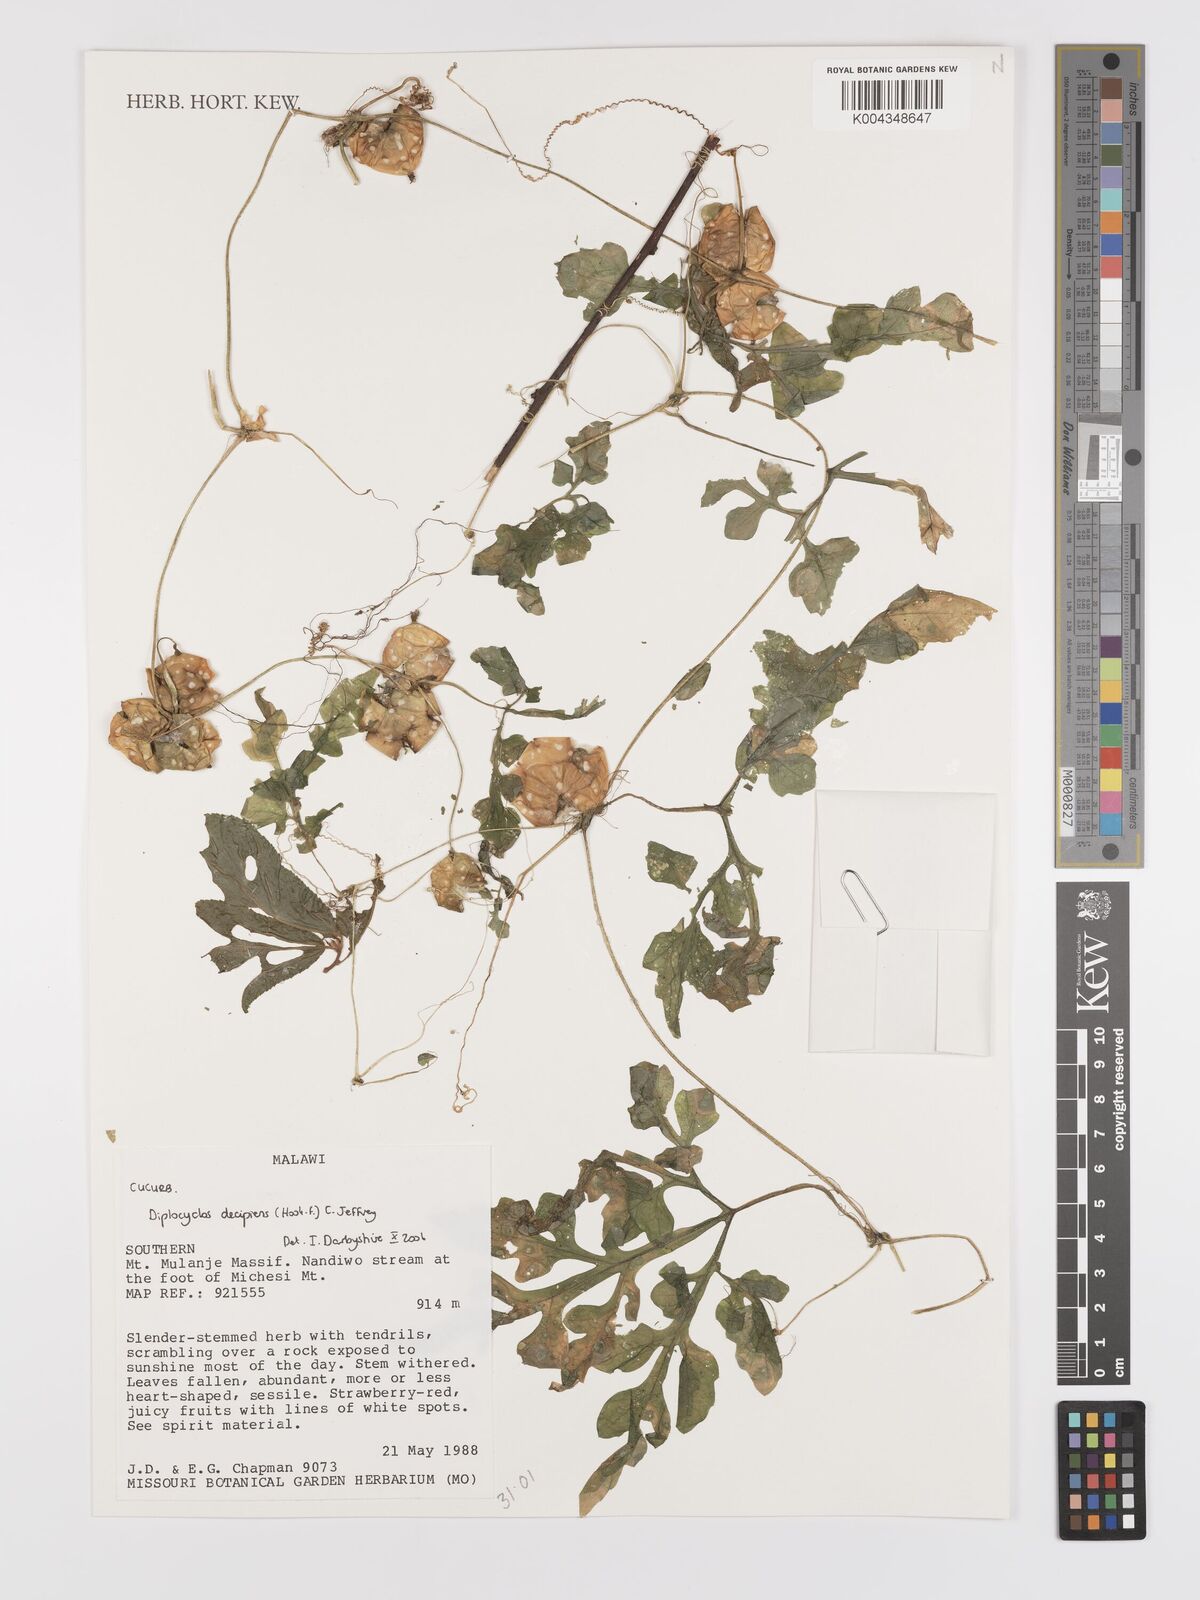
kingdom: Plantae
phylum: Tracheophyta
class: Magnoliopsida
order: Cucurbitales
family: Cucurbitaceae
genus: Diplocyclos
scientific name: Diplocyclos decipiens
